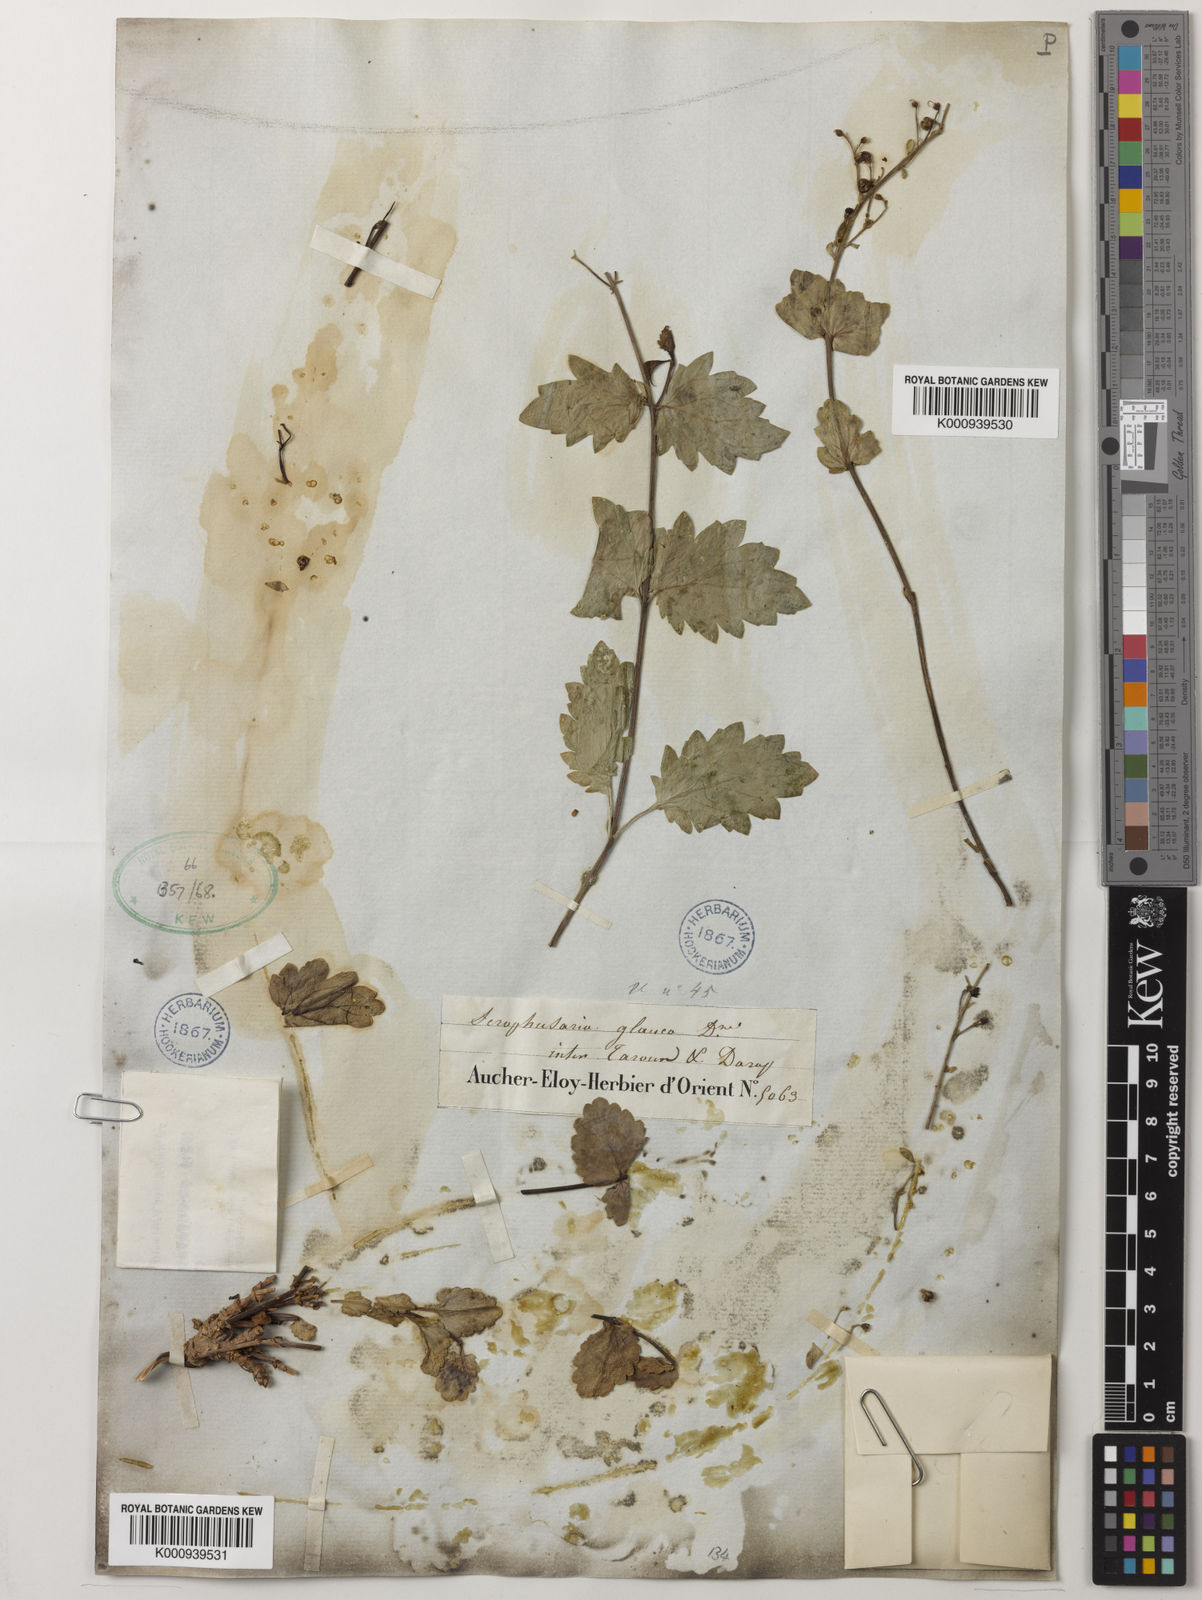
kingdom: Plantae
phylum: Tracheophyta
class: Magnoliopsida
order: Lamiales
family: Scrophulariaceae
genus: Scrophularia
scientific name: Scrophularia prasiifolia
